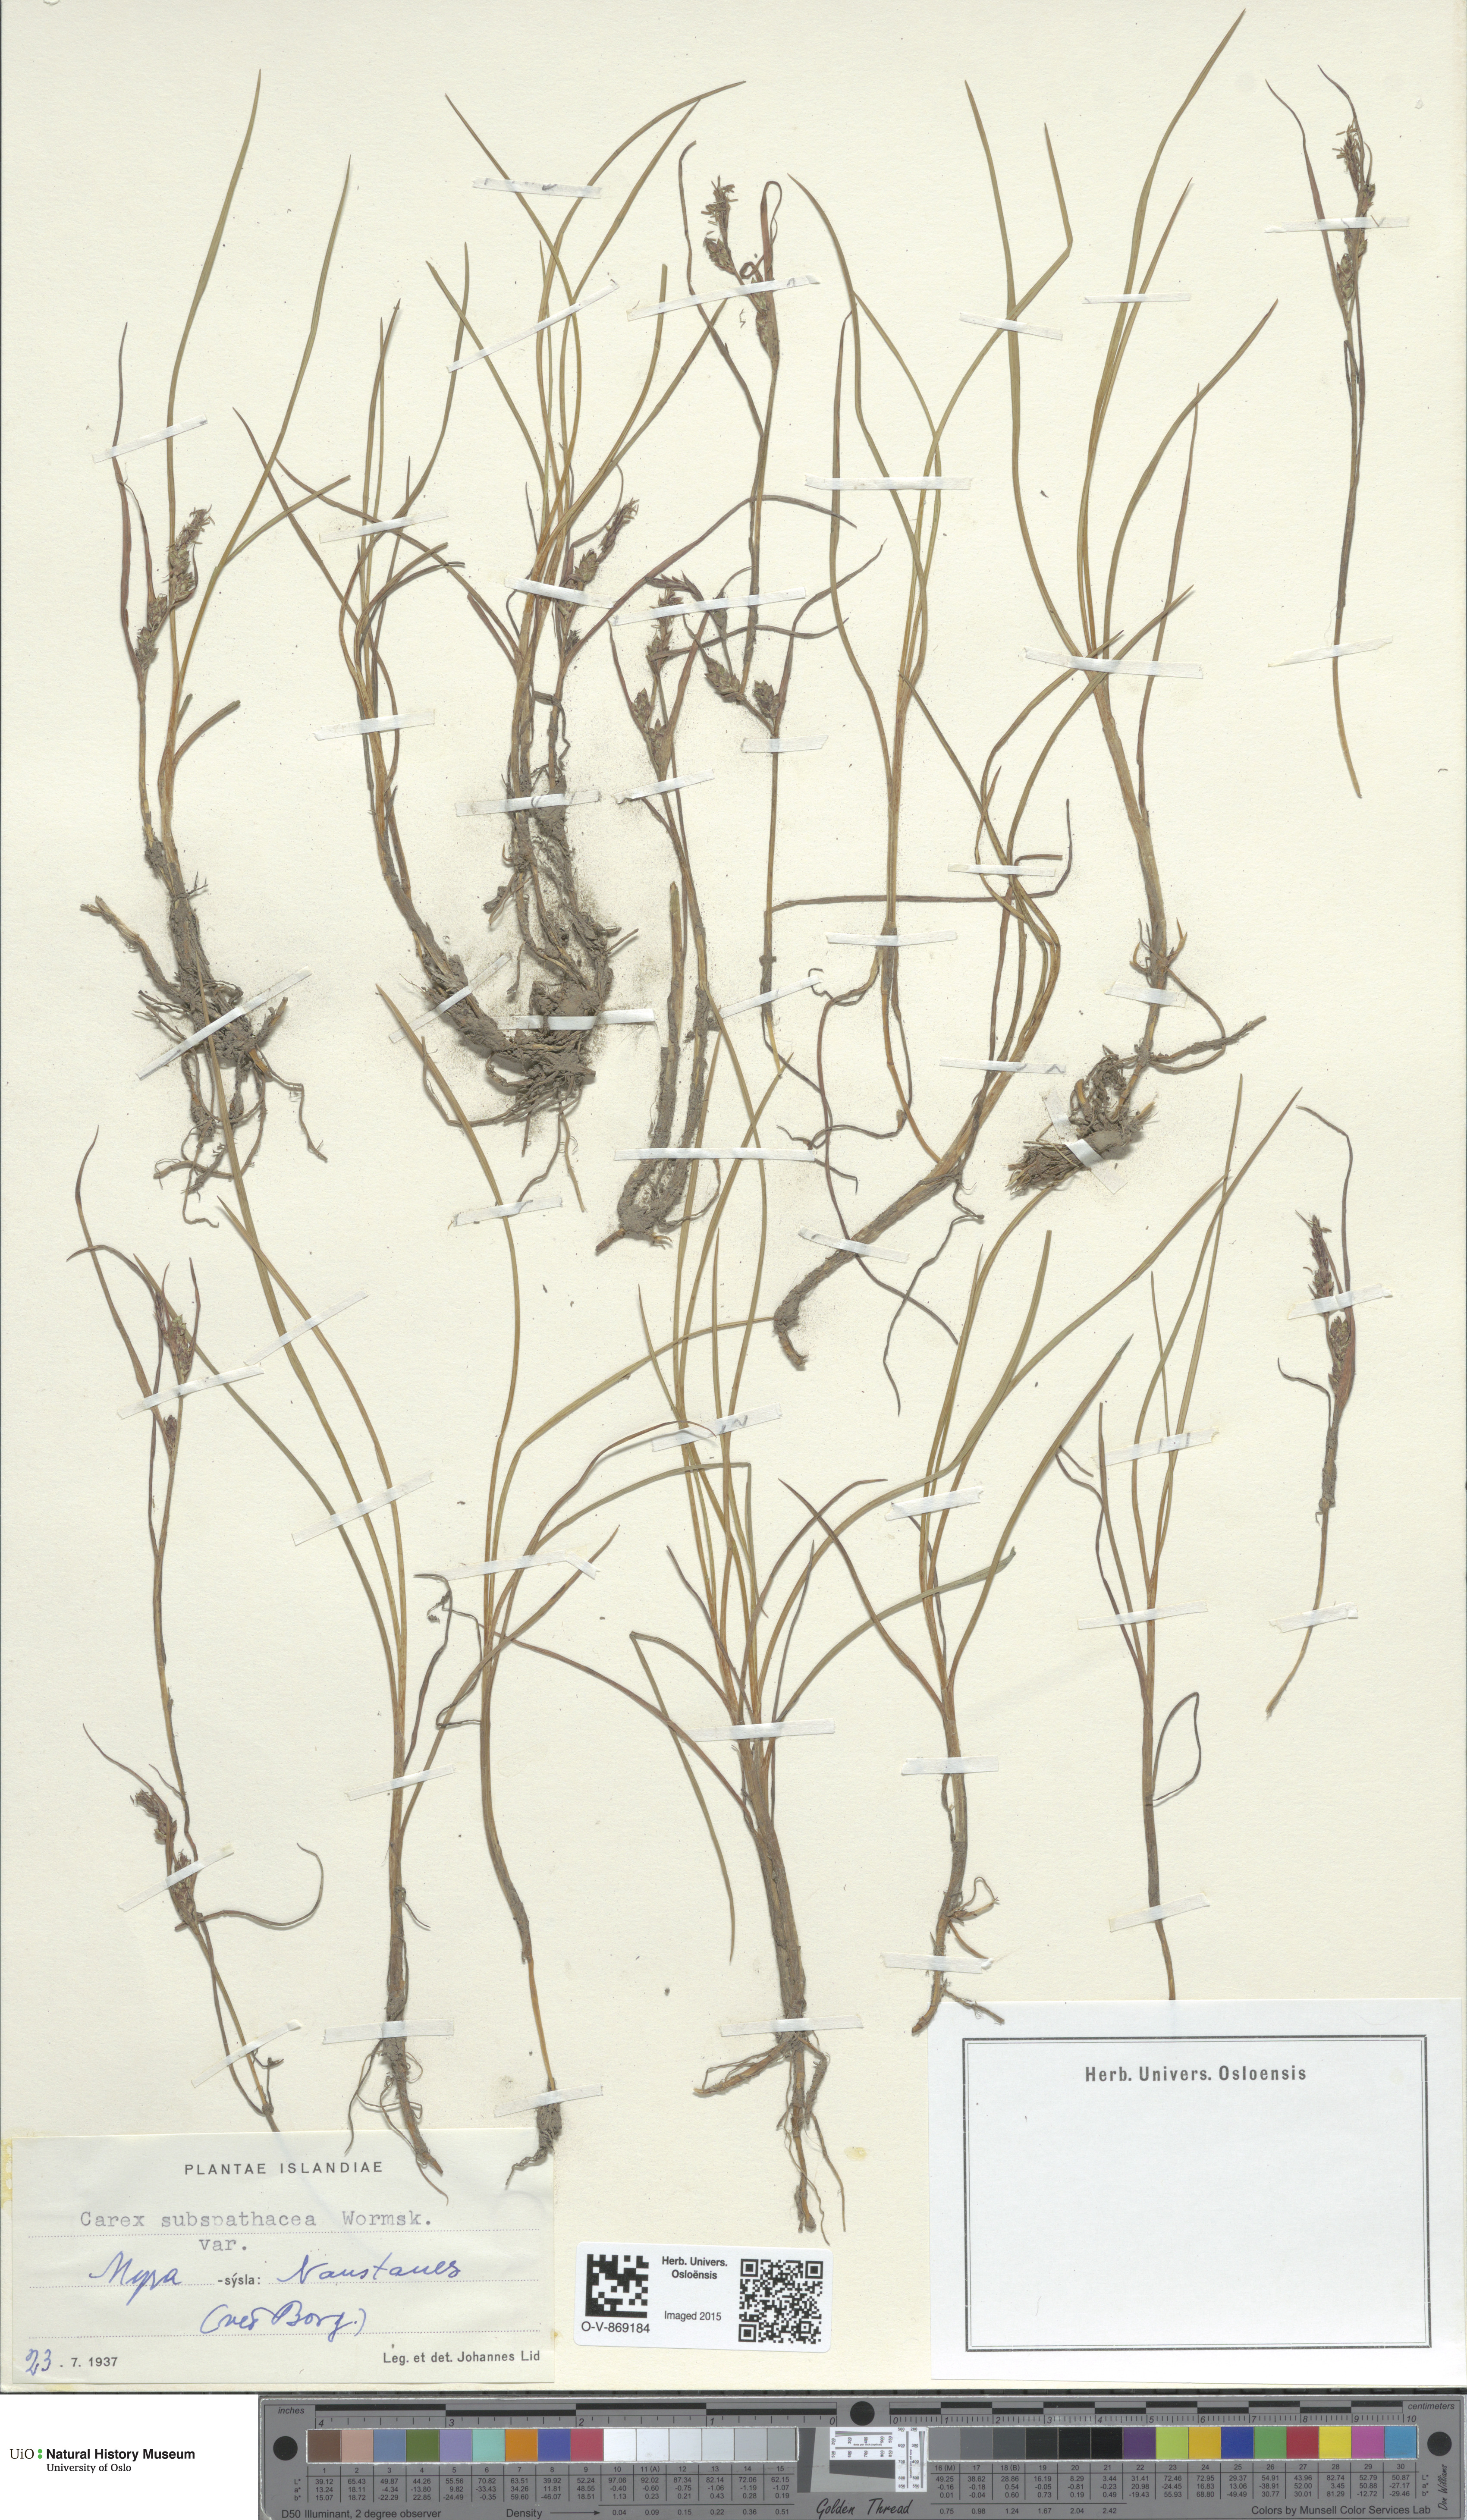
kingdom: Plantae
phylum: Tracheophyta
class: Liliopsida
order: Poales
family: Cyperaceae
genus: Carex
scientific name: Carex subspathacea
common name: Hoppner's sedge
